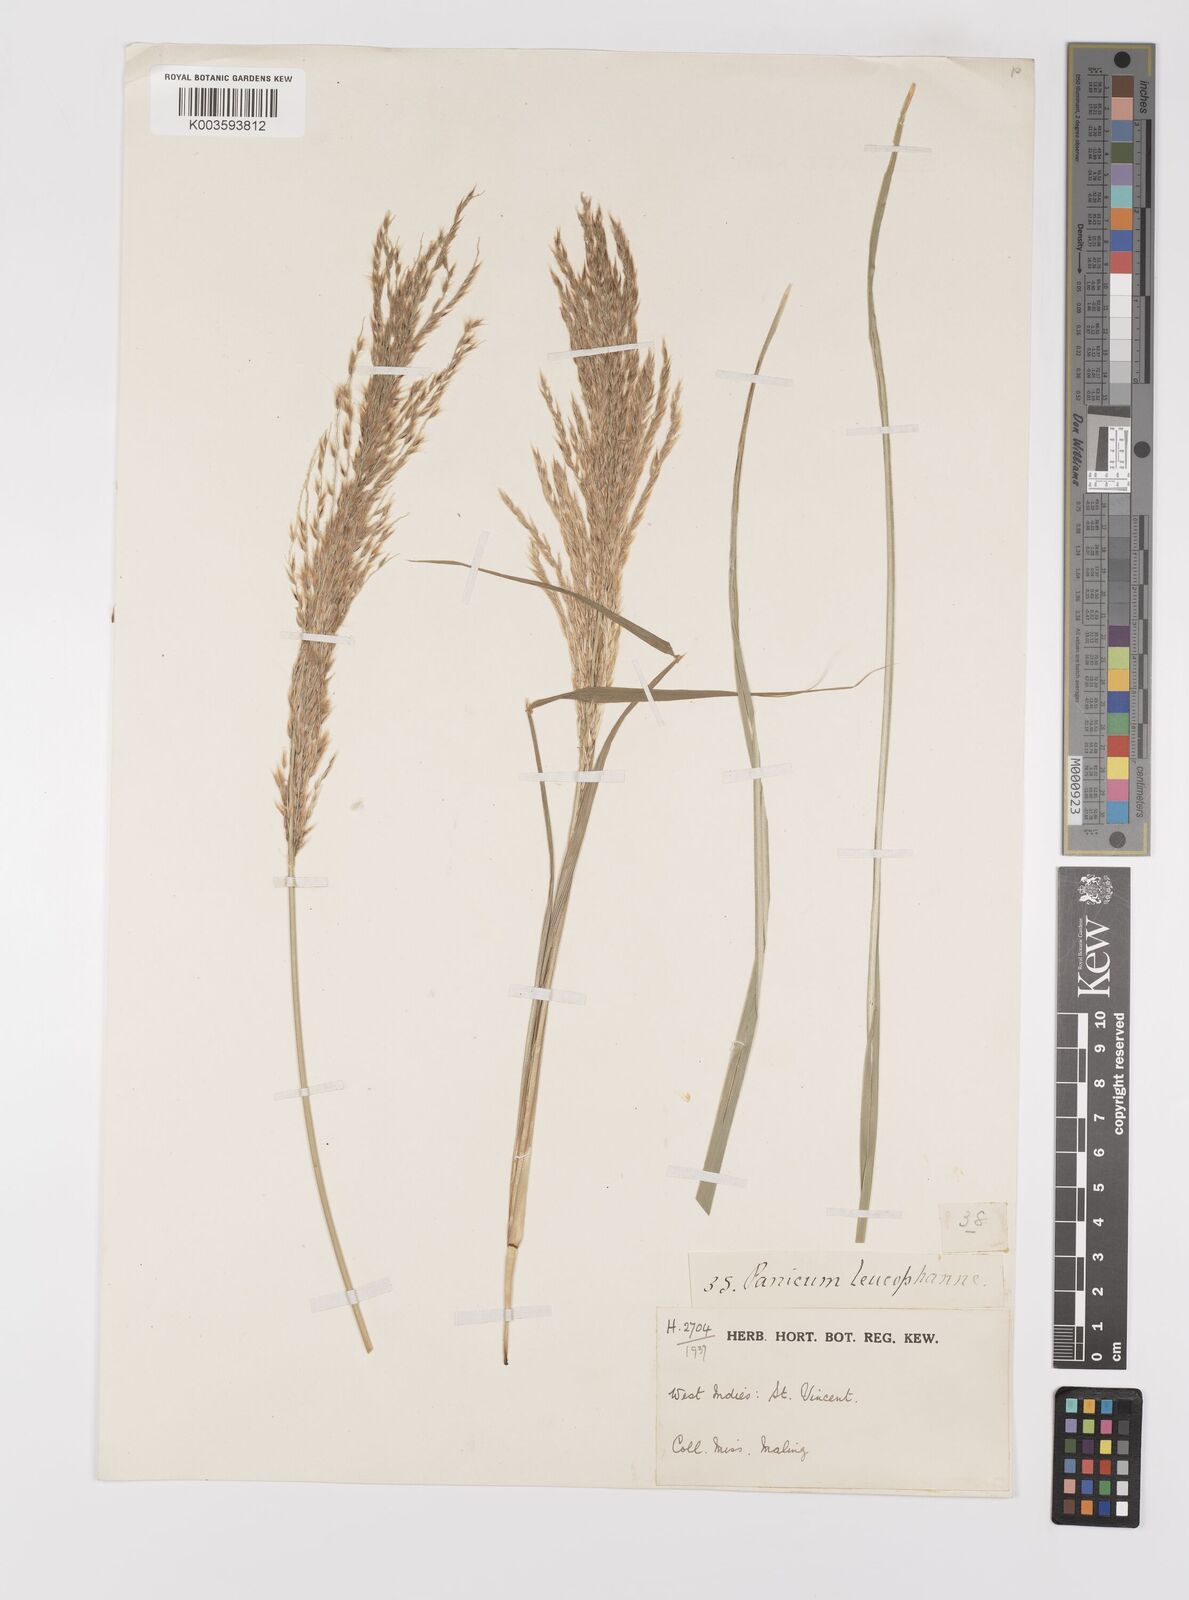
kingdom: Plantae
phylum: Tracheophyta
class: Liliopsida
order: Poales
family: Poaceae
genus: Digitaria
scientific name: Digitaria insularis
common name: Sourgrass
